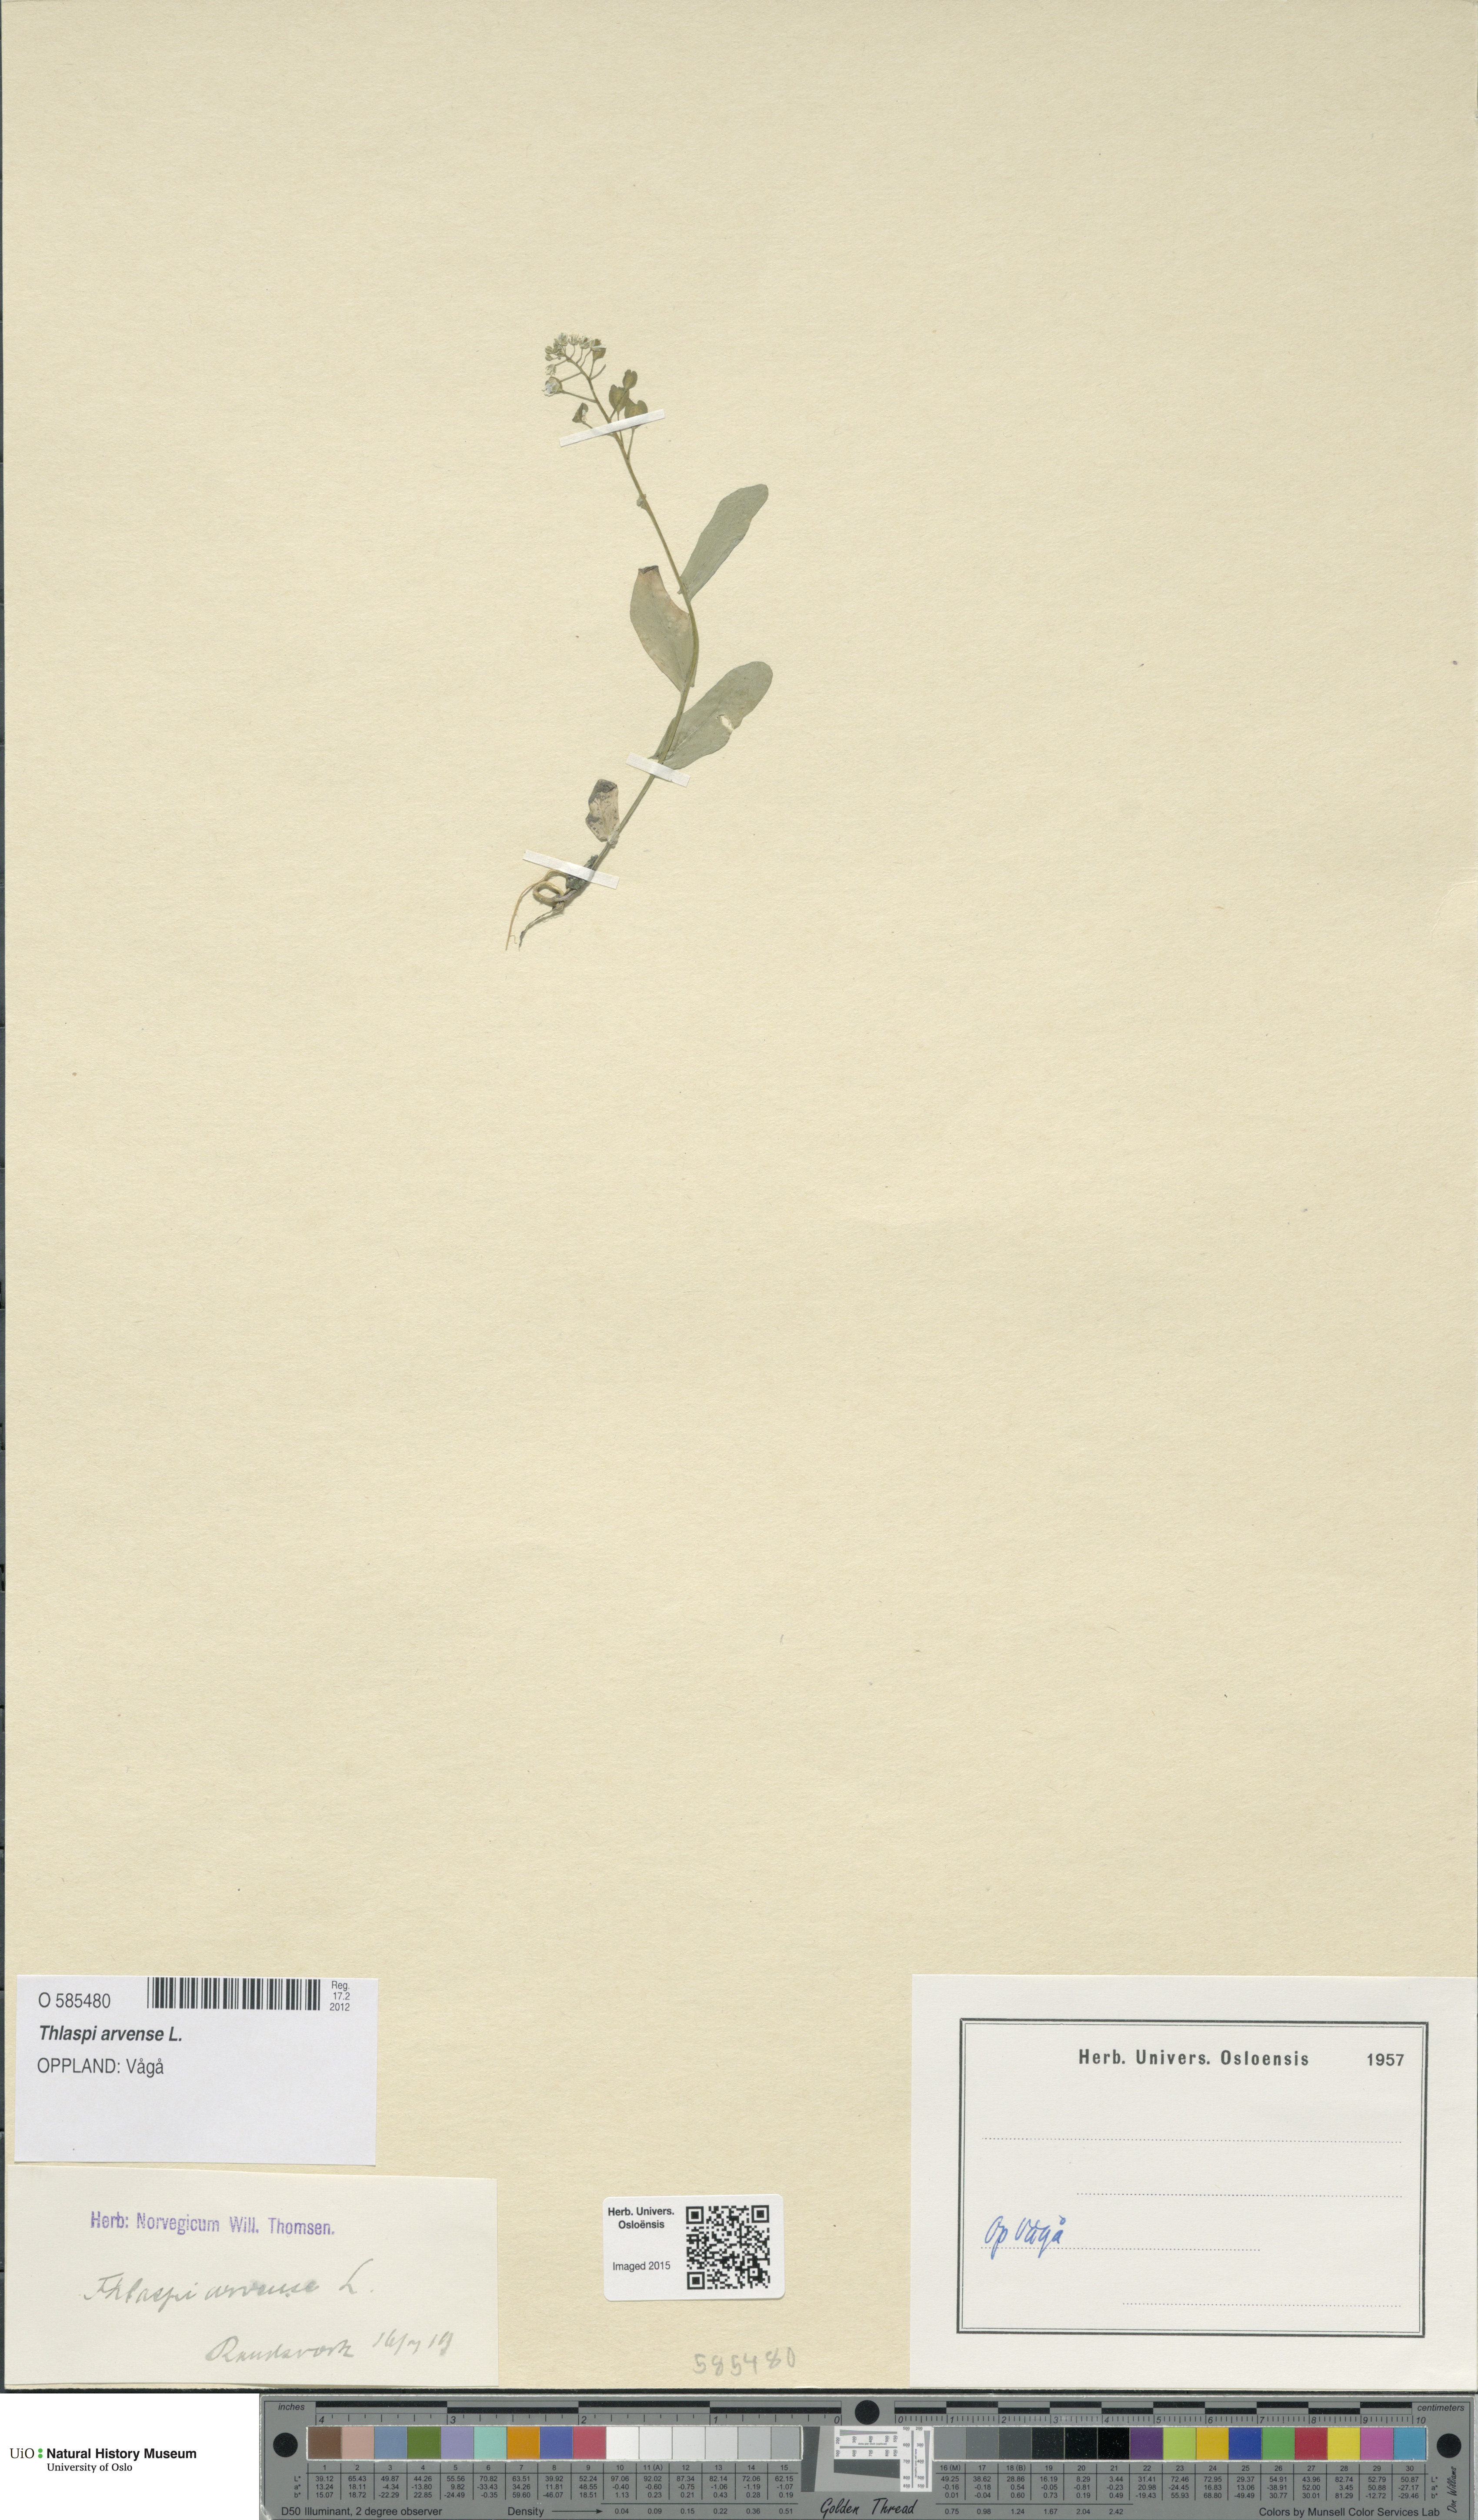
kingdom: Plantae
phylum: Tracheophyta
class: Magnoliopsida
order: Brassicales
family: Brassicaceae
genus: Thlaspi
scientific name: Thlaspi arvense
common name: Field pennycress
